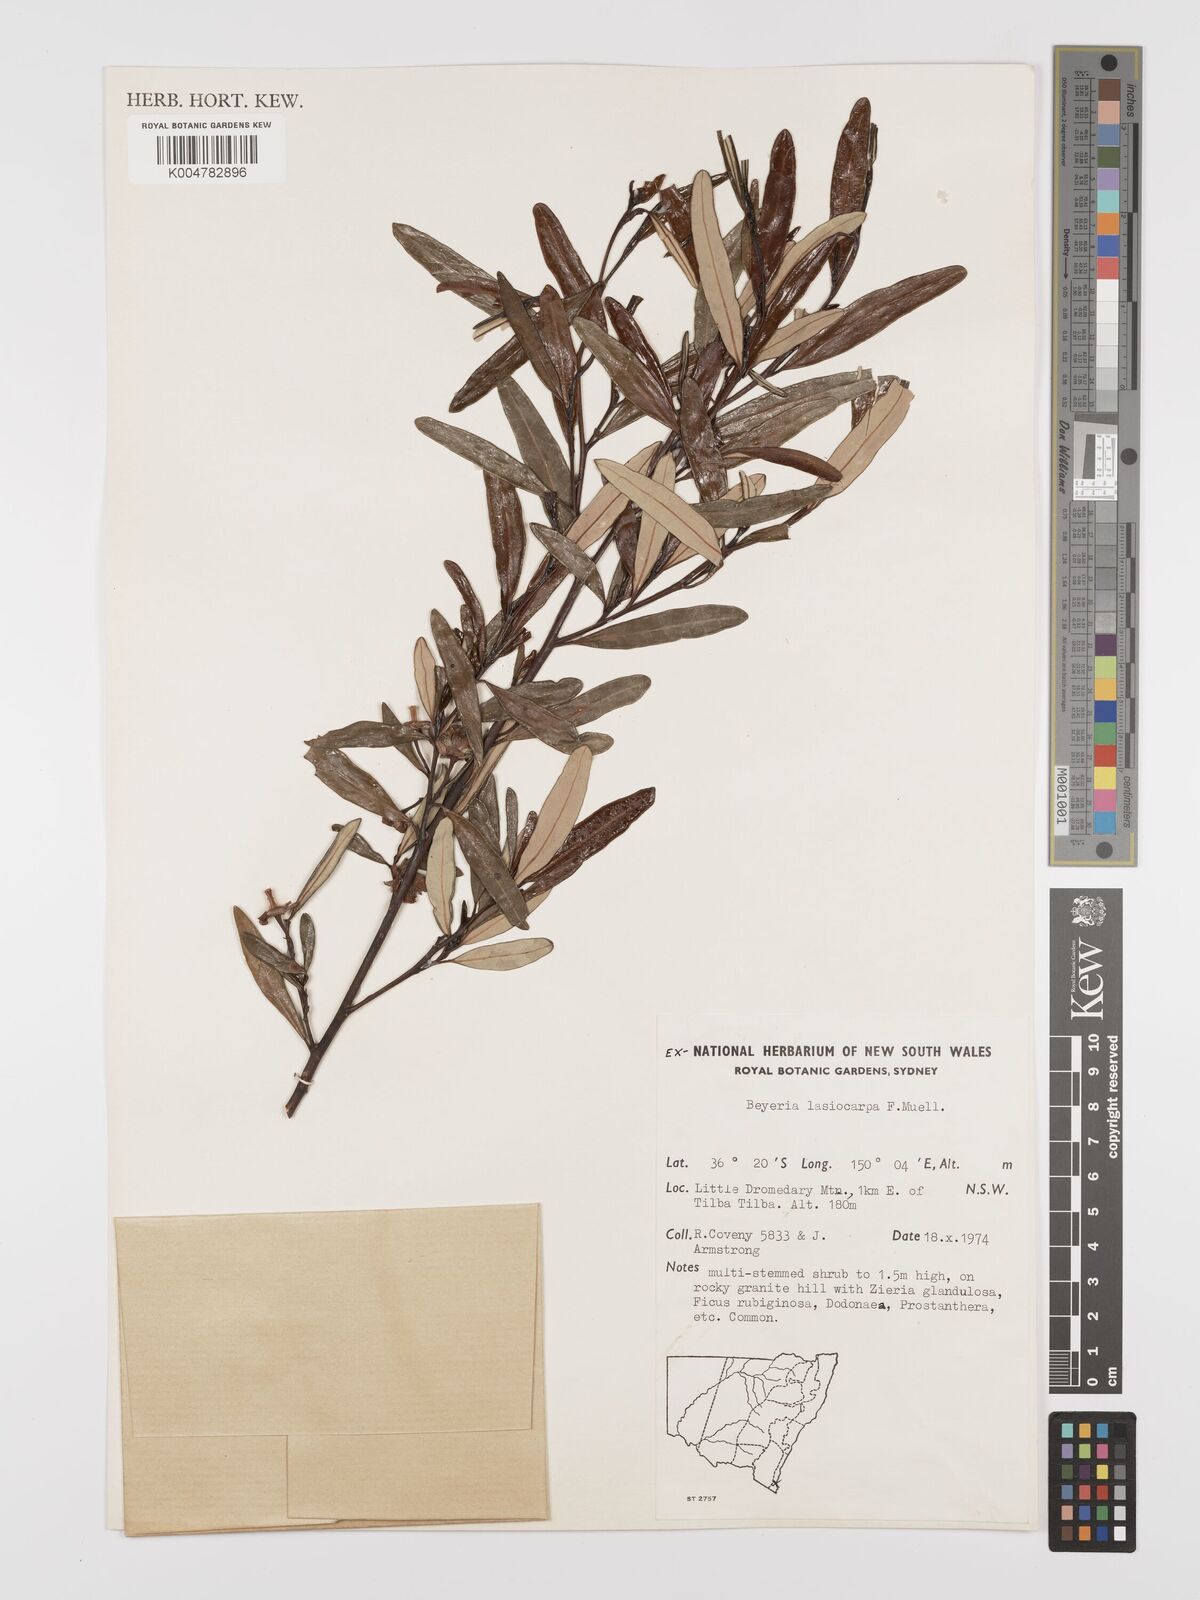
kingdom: Plantae
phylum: Tracheophyta
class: Magnoliopsida
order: Malpighiales
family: Euphorbiaceae
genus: Beyeria
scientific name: Beyeria lasiocarpa
